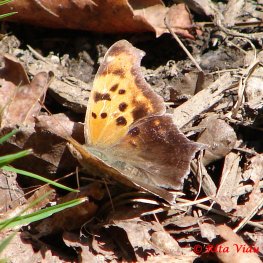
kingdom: Animalia
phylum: Arthropoda
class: Insecta
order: Lepidoptera
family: Nymphalidae
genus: Polygonia
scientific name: Polygonia interrogationis
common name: Question Mark
